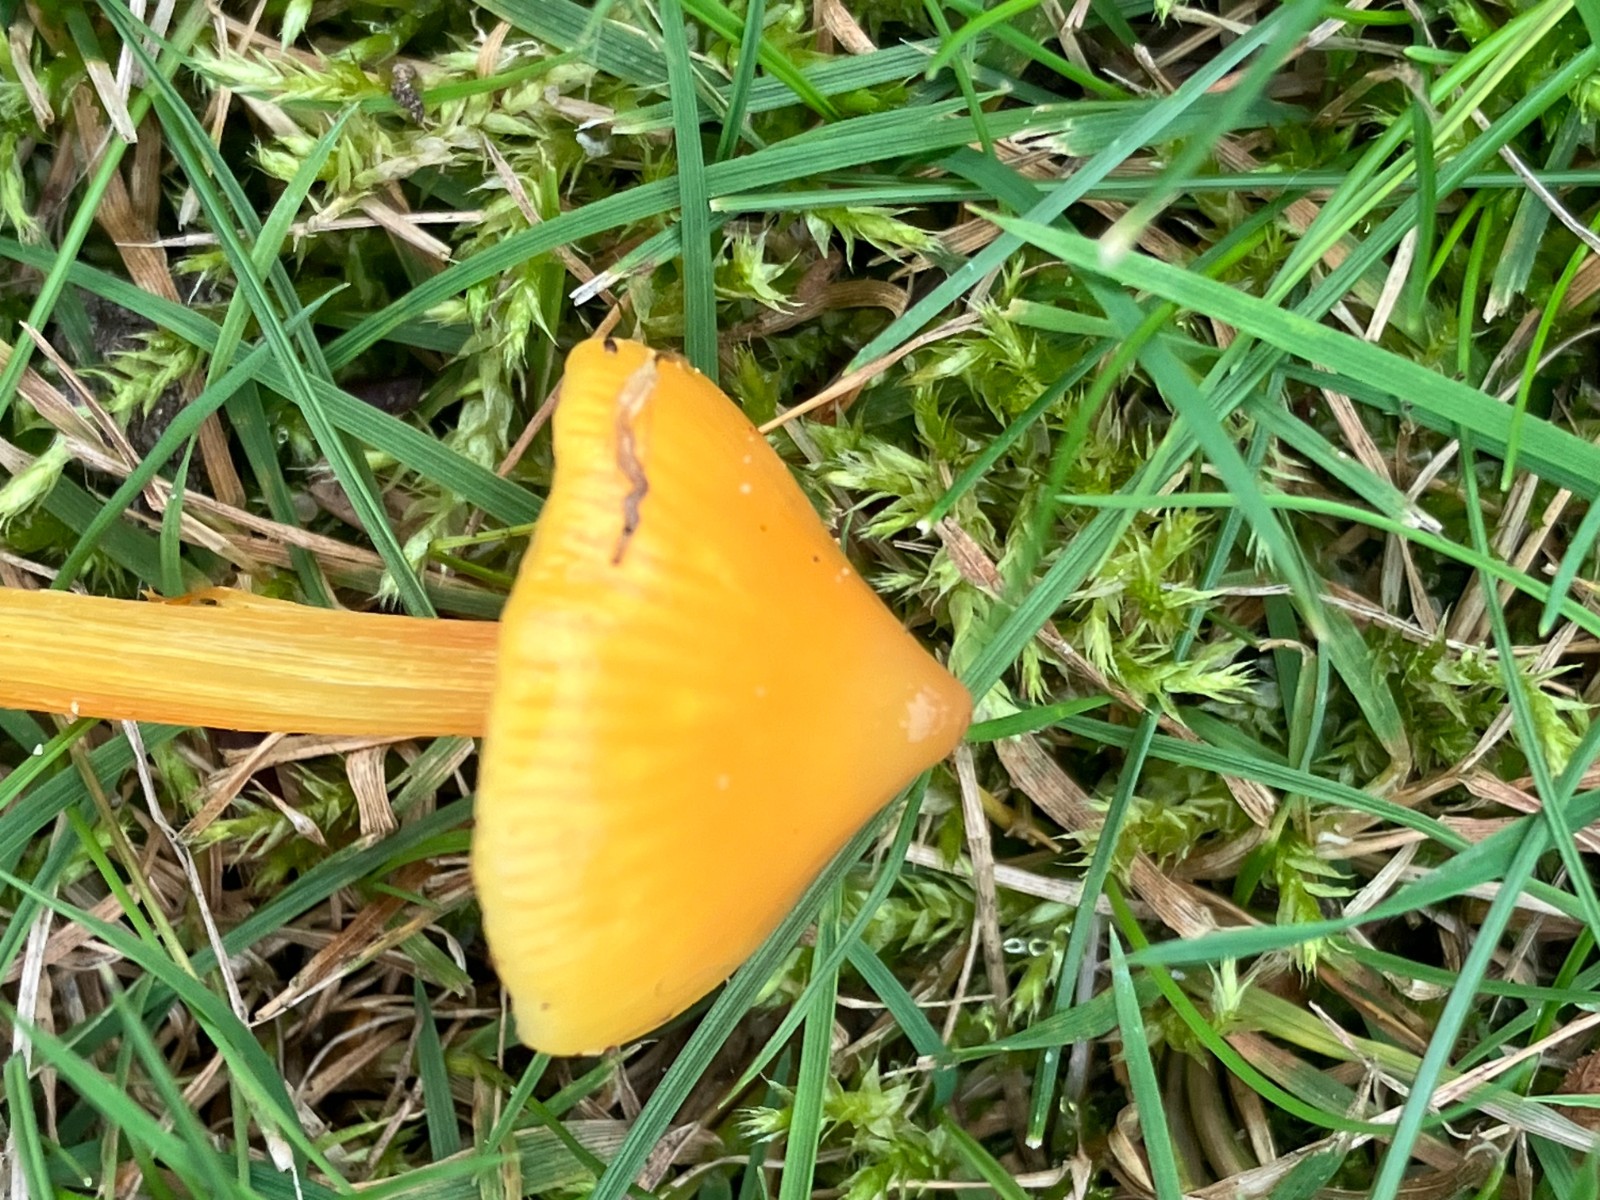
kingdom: Fungi
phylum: Basidiomycota
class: Agaricomycetes
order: Agaricales
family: Hygrophoraceae
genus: Hygrocybe
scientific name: Hygrocybe
